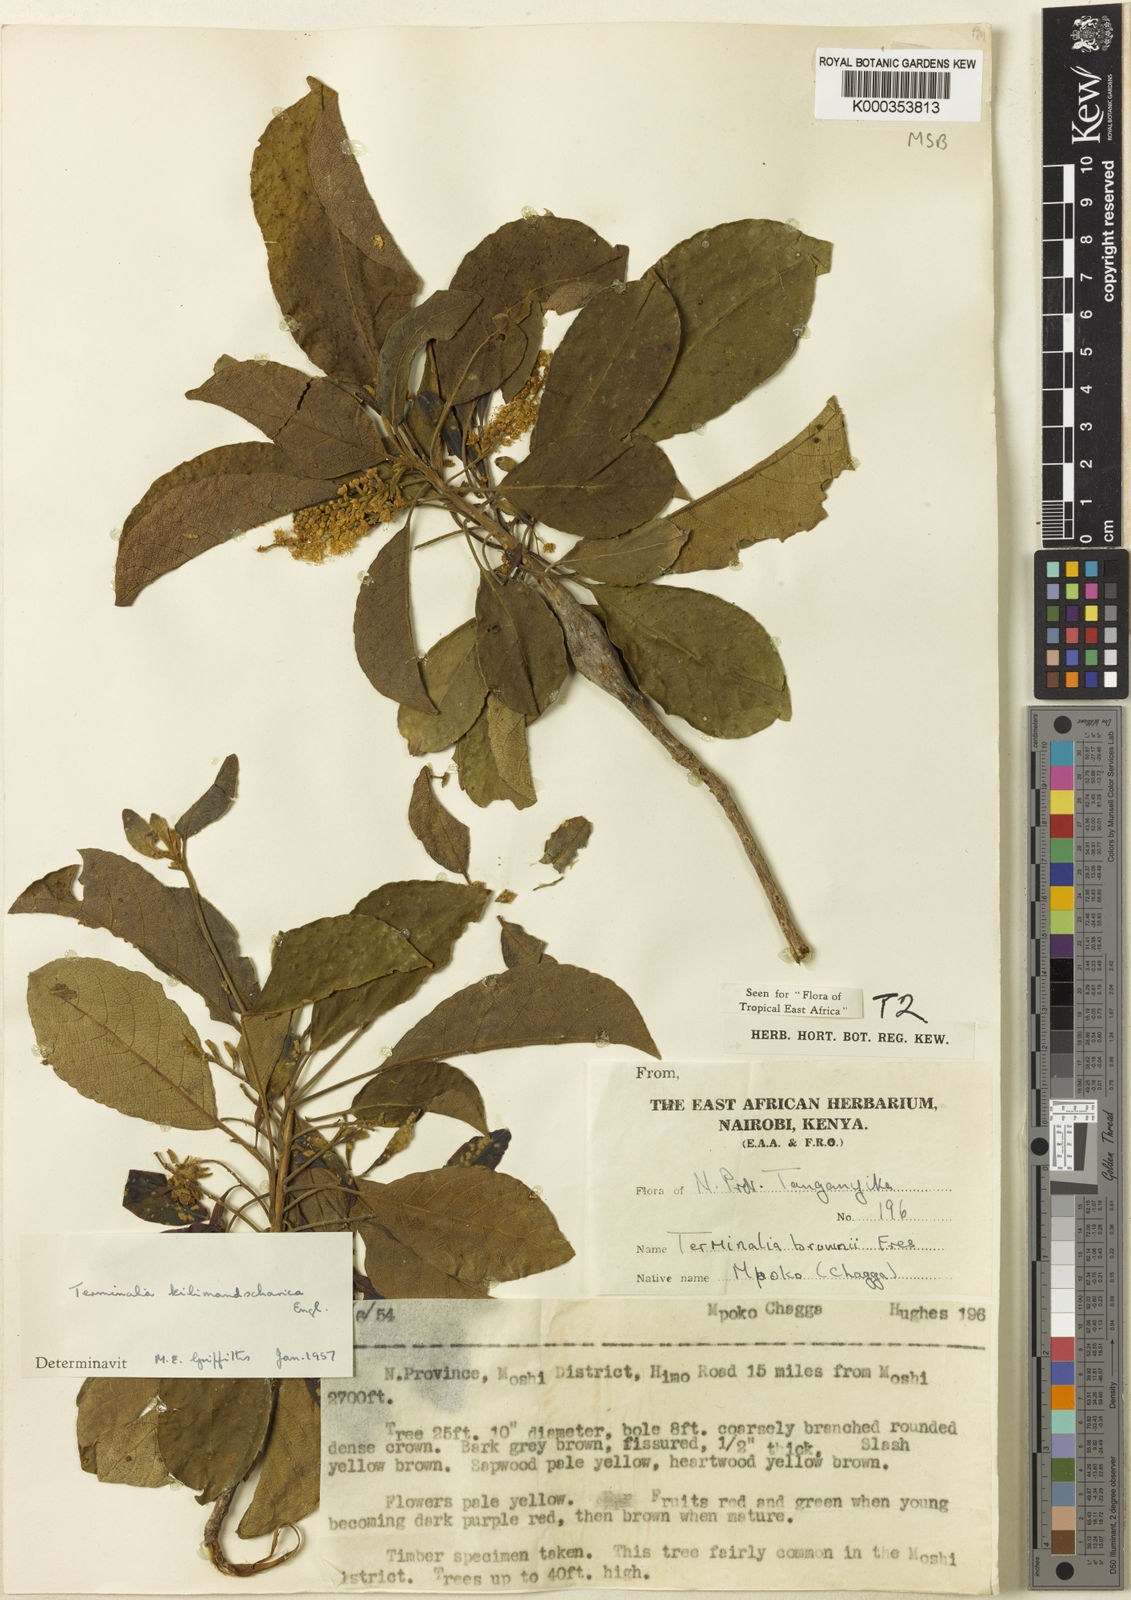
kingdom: Plantae
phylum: Tracheophyta
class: Magnoliopsida
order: Myrtales
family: Combretaceae
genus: Terminalia
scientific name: Terminalia kilimandscharica
